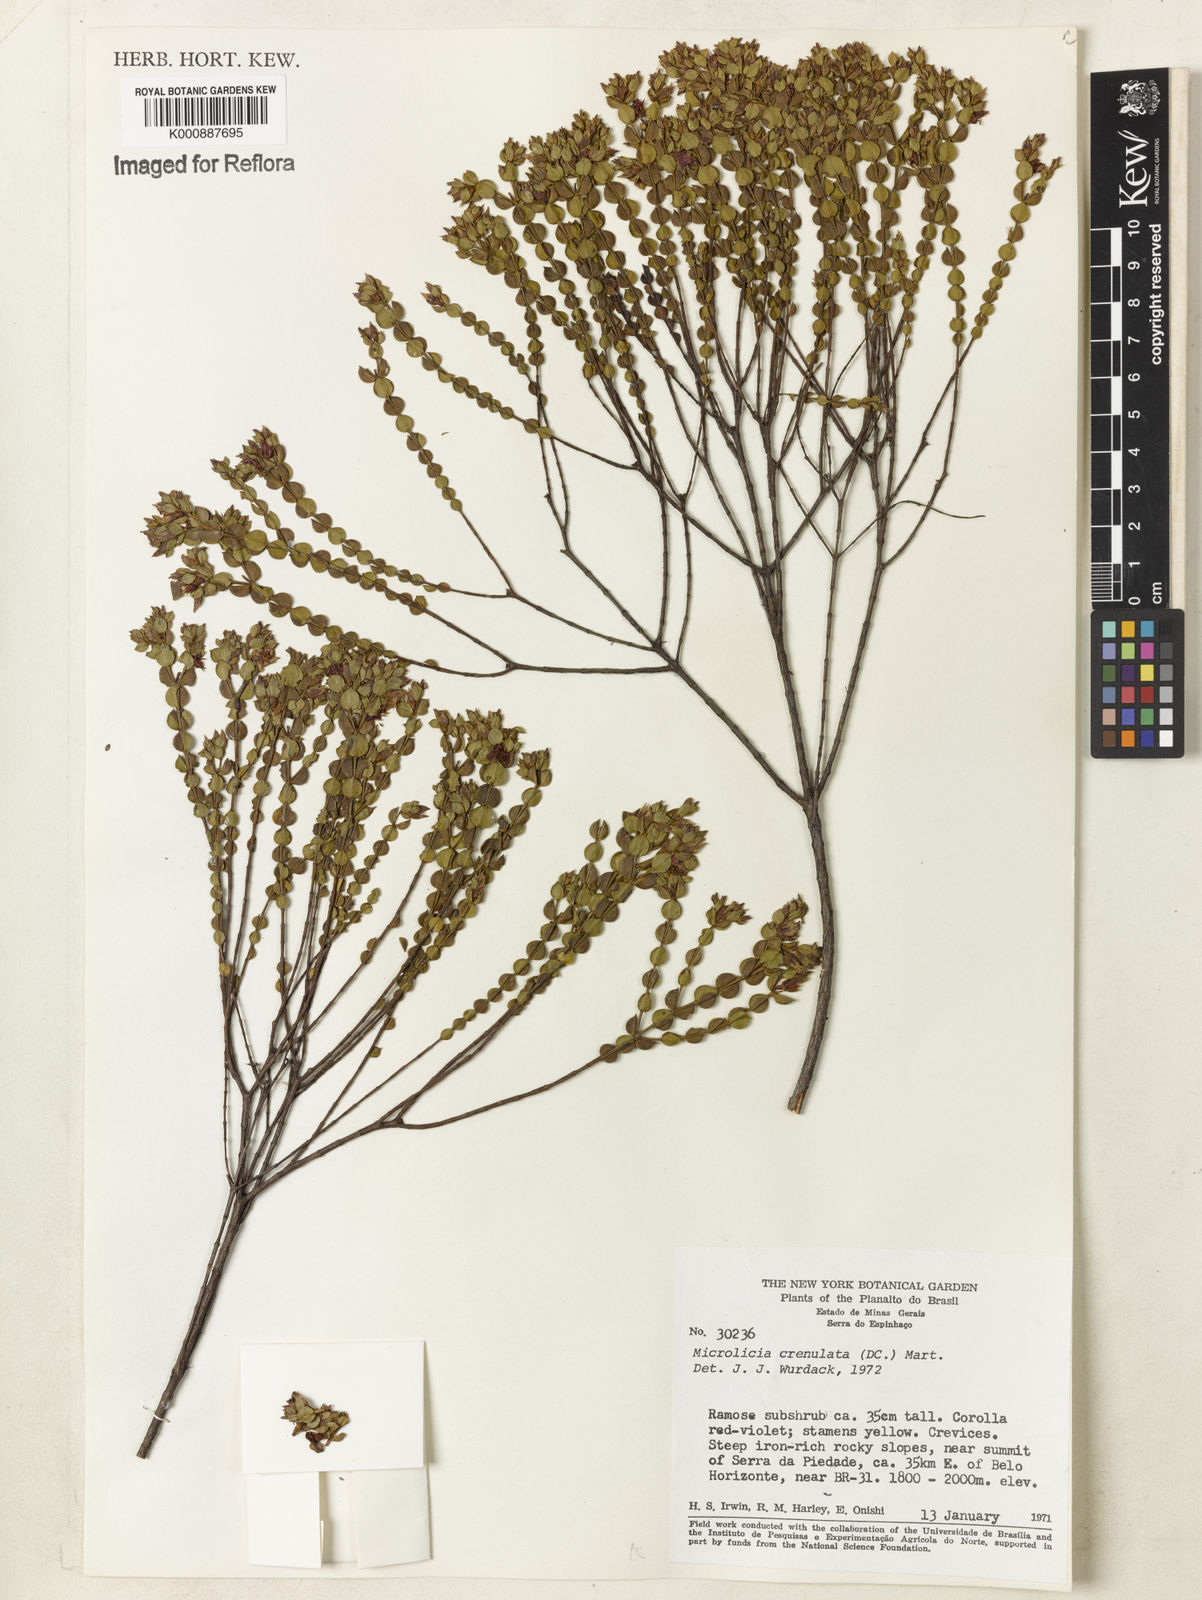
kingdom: Plantae
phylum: Tracheophyta
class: Magnoliopsida
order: Myrtales
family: Melastomataceae
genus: Microlicia
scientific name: Microlicia crenulata
